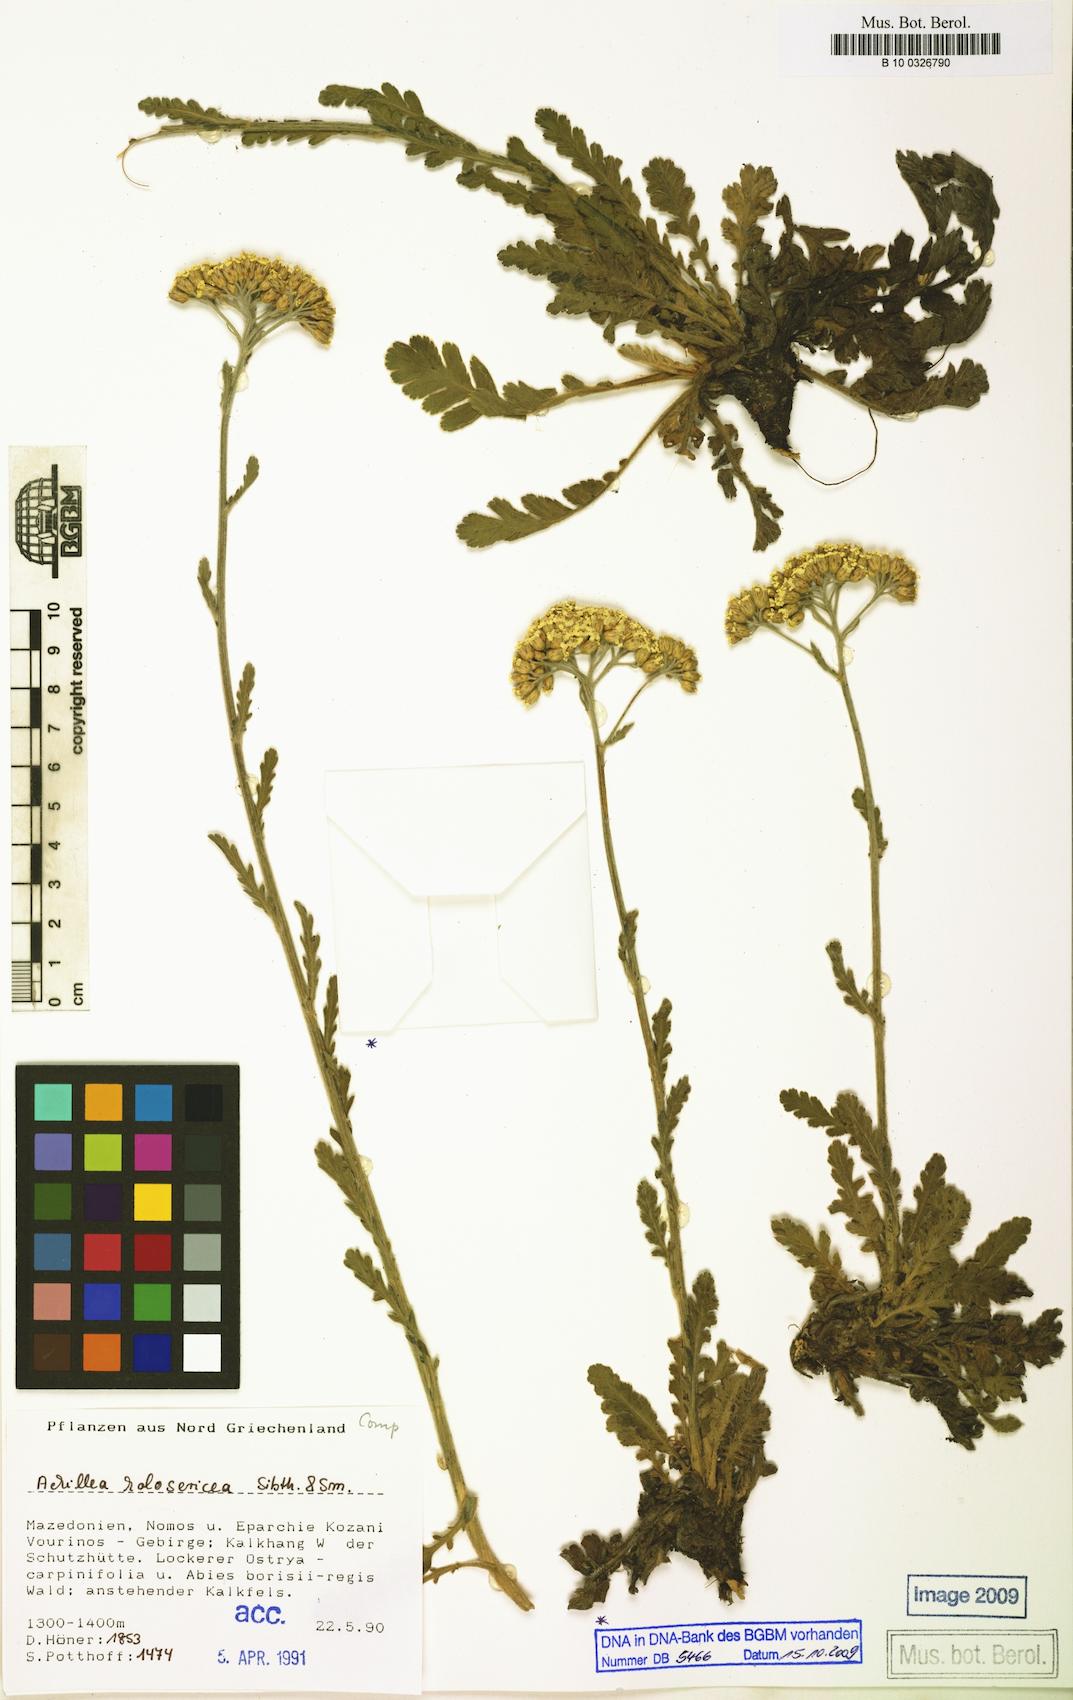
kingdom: Plantae
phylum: Tracheophyta
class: Magnoliopsida
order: Asterales
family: Asteraceae
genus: Achillea
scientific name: Achillea holosericea
